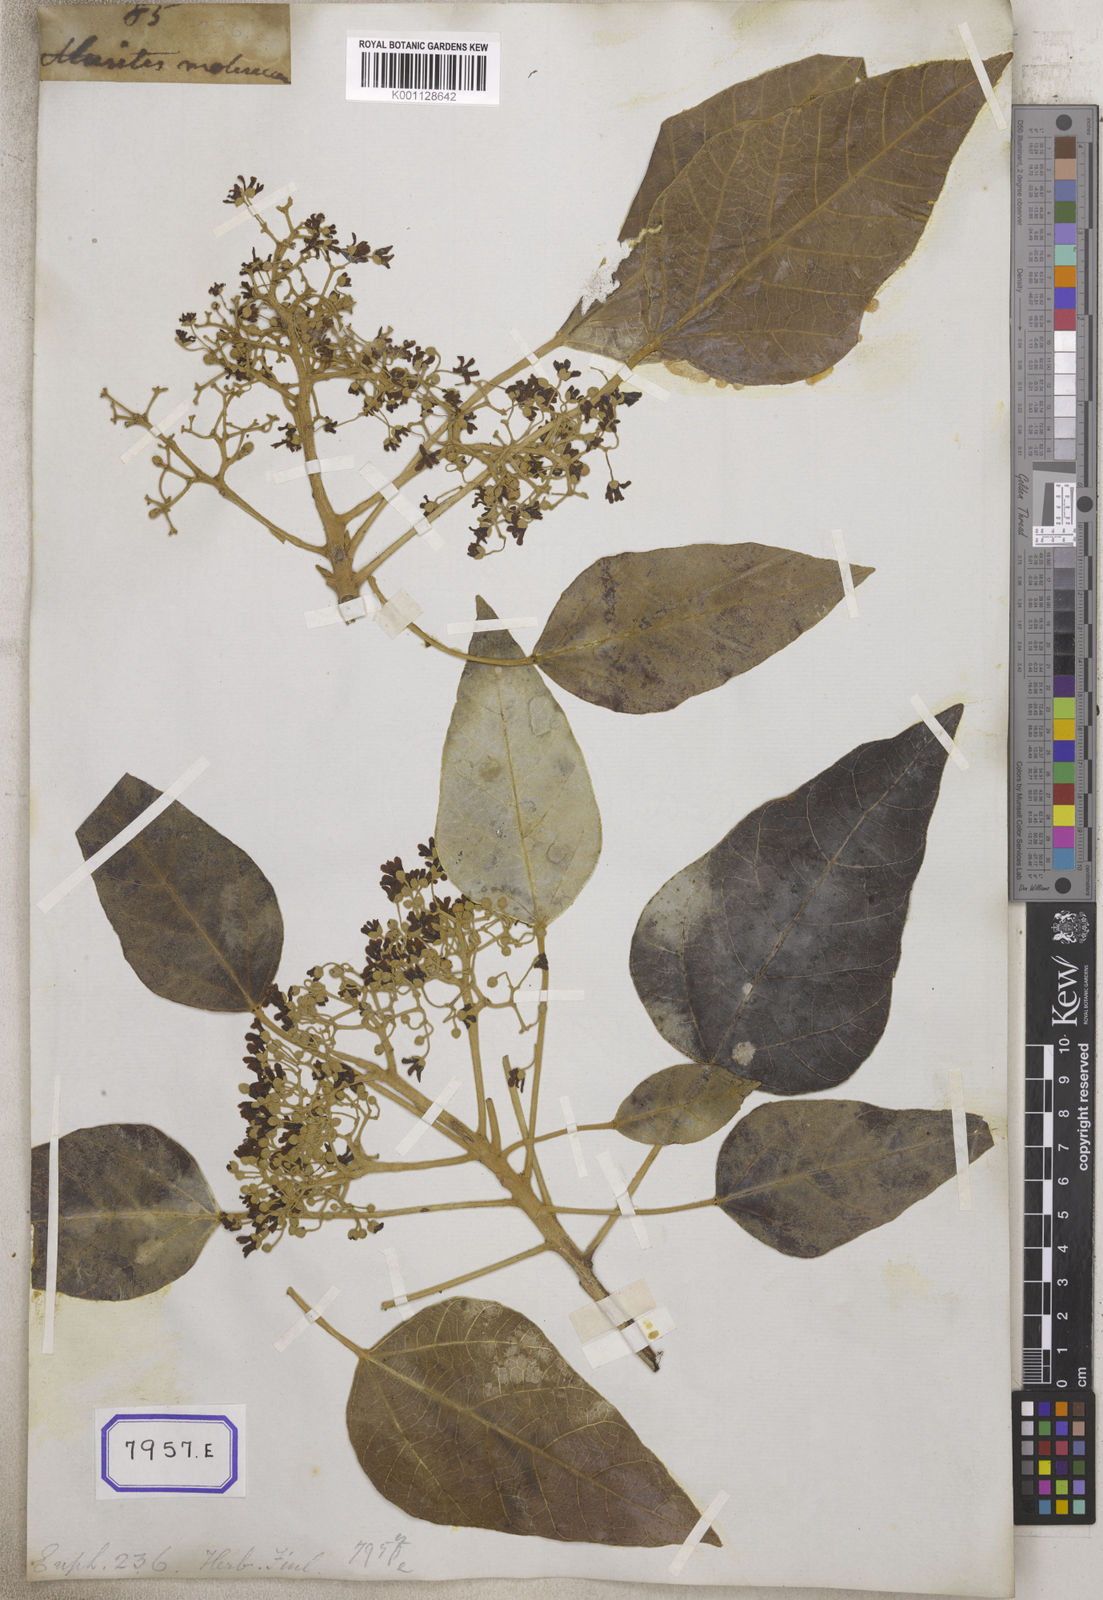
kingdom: Plantae
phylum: Tracheophyta
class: Magnoliopsida
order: Malpighiales
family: Euphorbiaceae
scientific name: Euphorbiaceae
